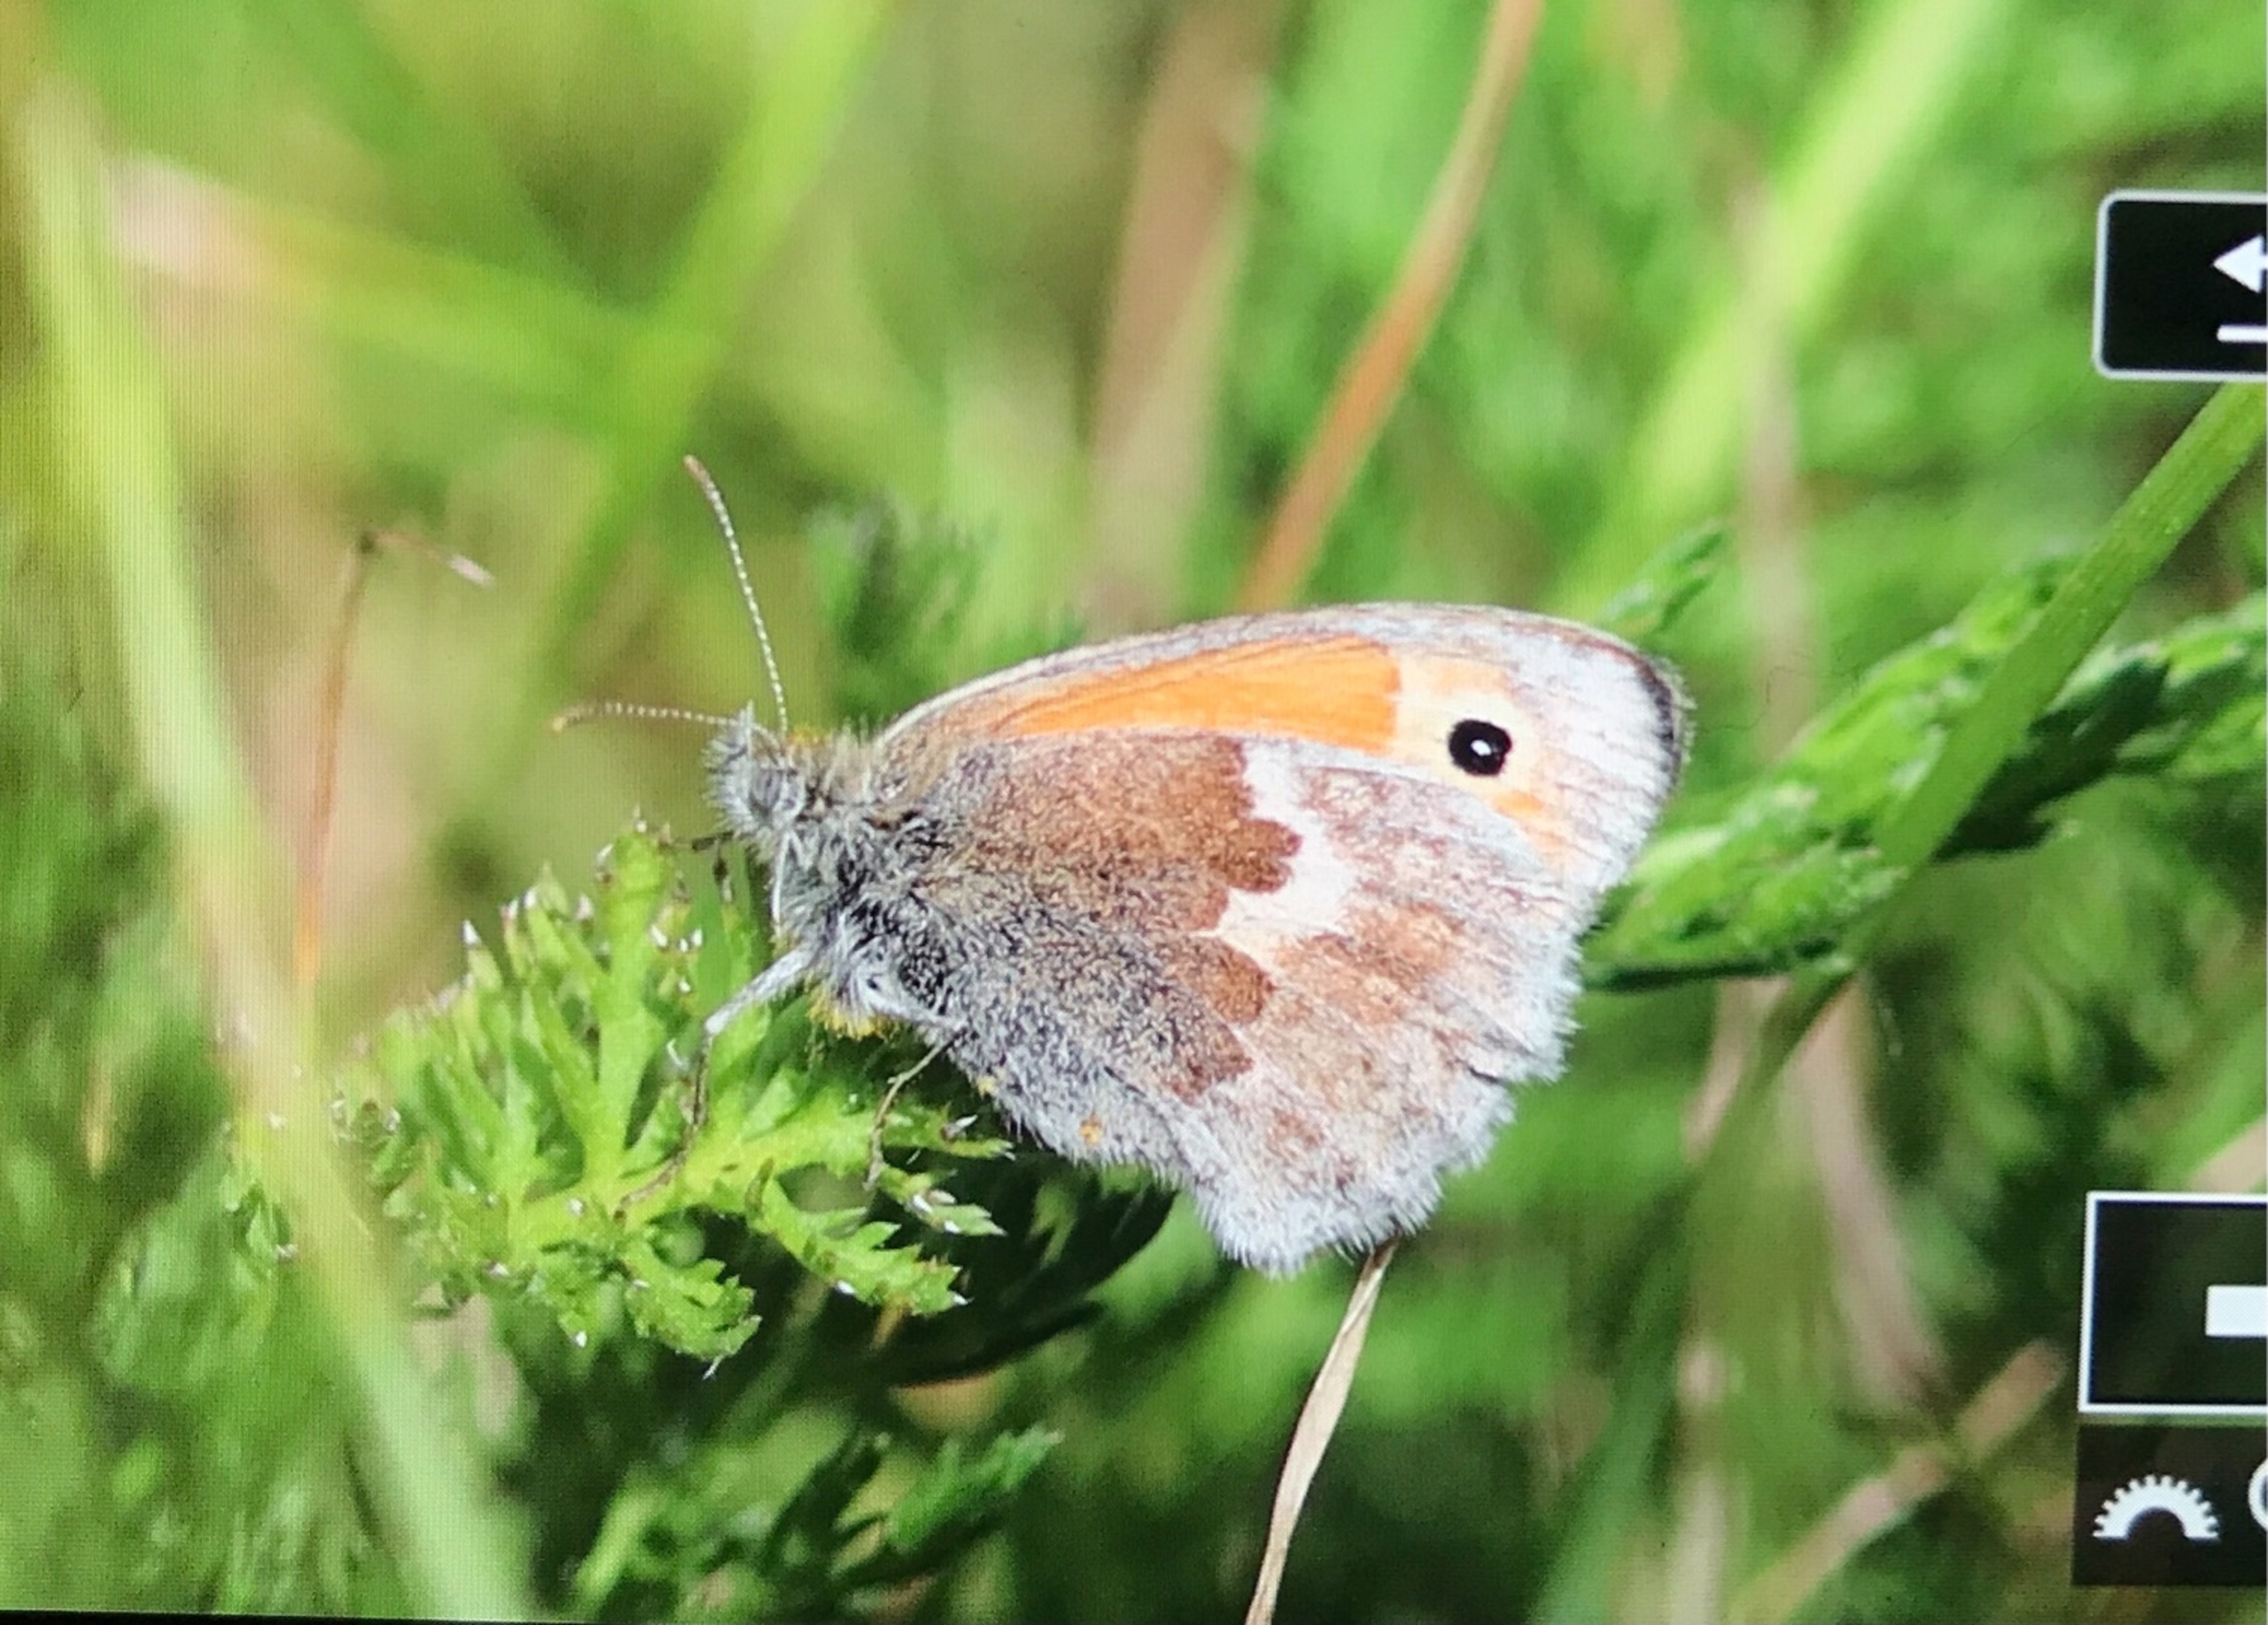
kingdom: Animalia
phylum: Arthropoda
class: Insecta
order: Lepidoptera
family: Nymphalidae
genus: Coenonympha
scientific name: Coenonympha pamphilus
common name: Okkergul randøje
